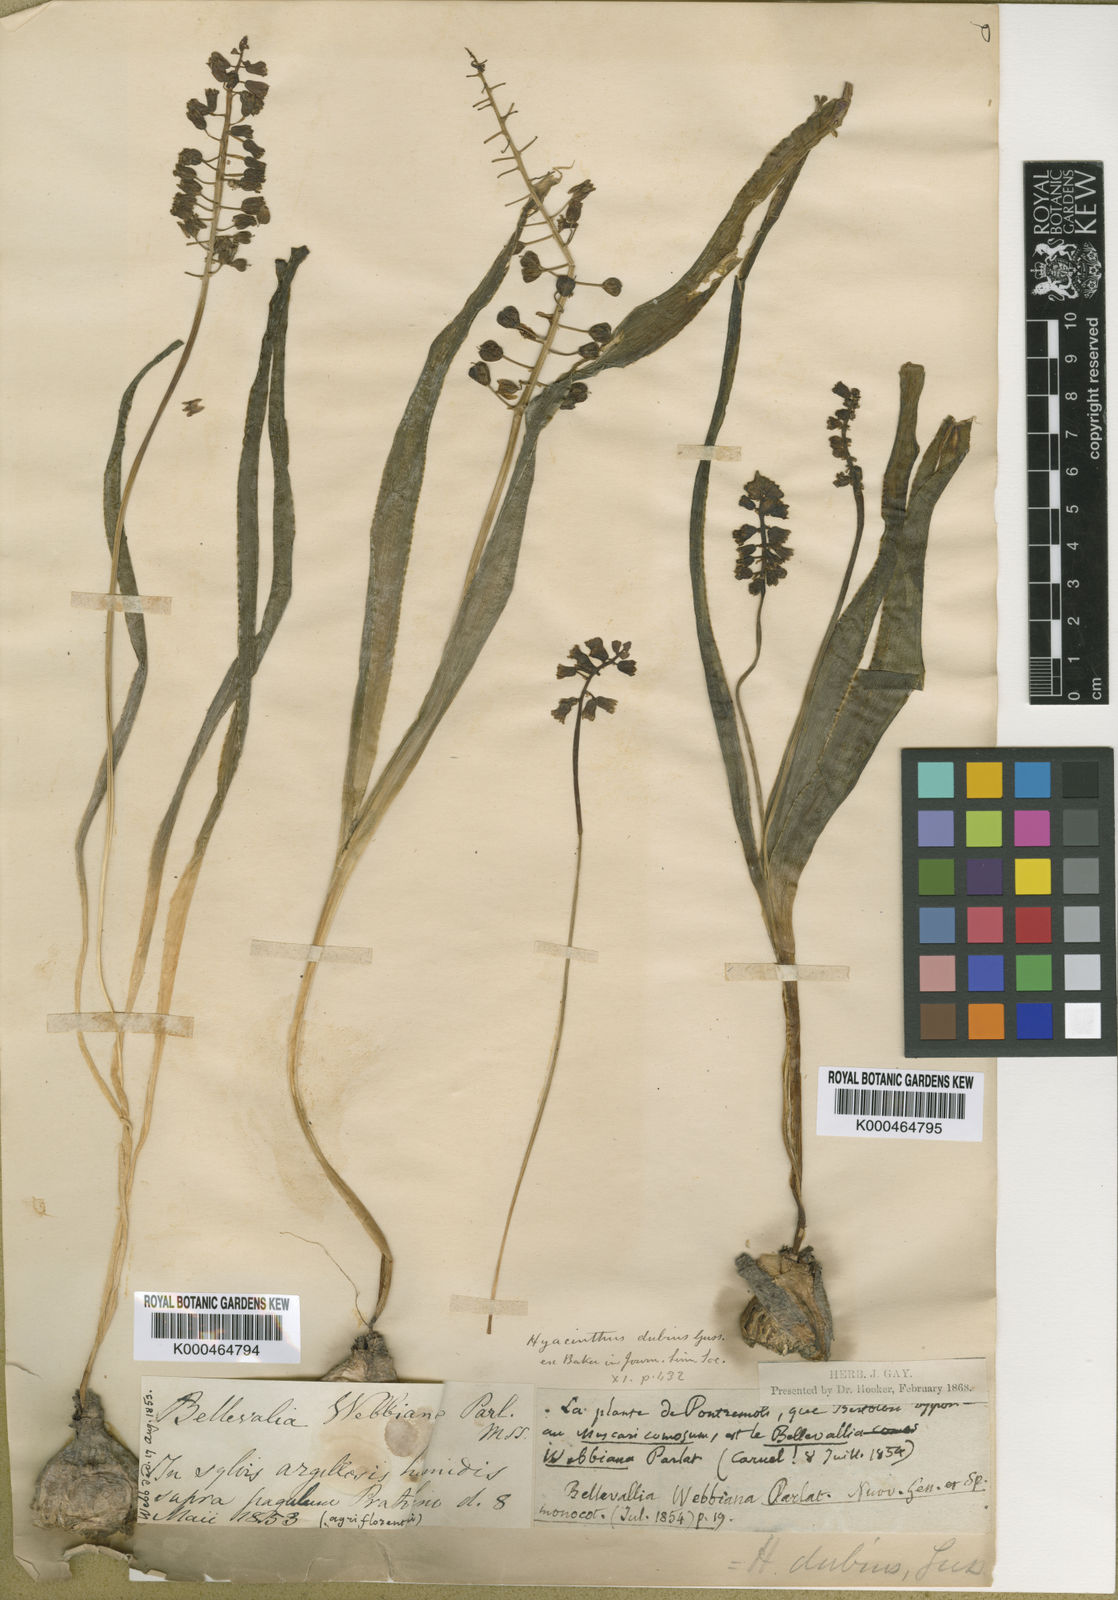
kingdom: Plantae
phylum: Tracheophyta
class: Liliopsida
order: Asparagales
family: Asparagaceae
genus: Bellevalia
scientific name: Bellevalia webbiana
